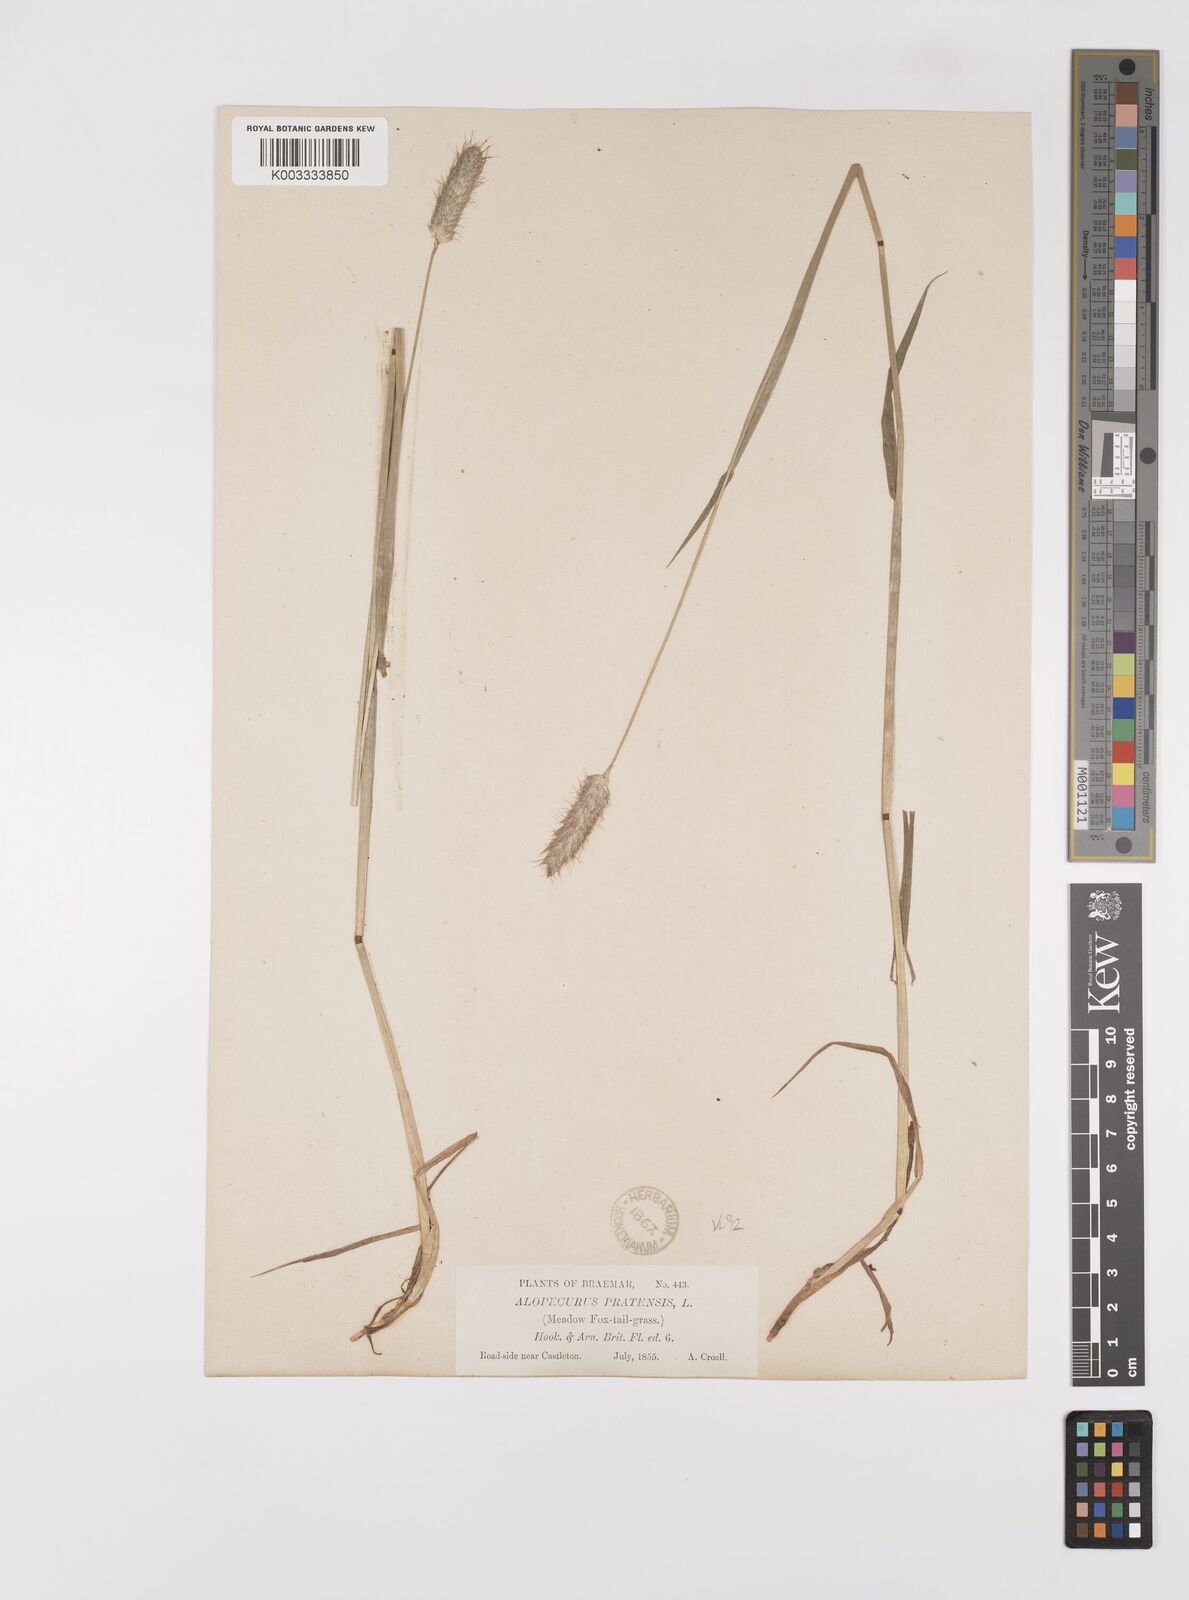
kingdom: Plantae
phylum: Tracheophyta
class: Liliopsida
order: Poales
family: Poaceae
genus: Alopecurus
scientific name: Alopecurus pratensis
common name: Meadow foxtail
